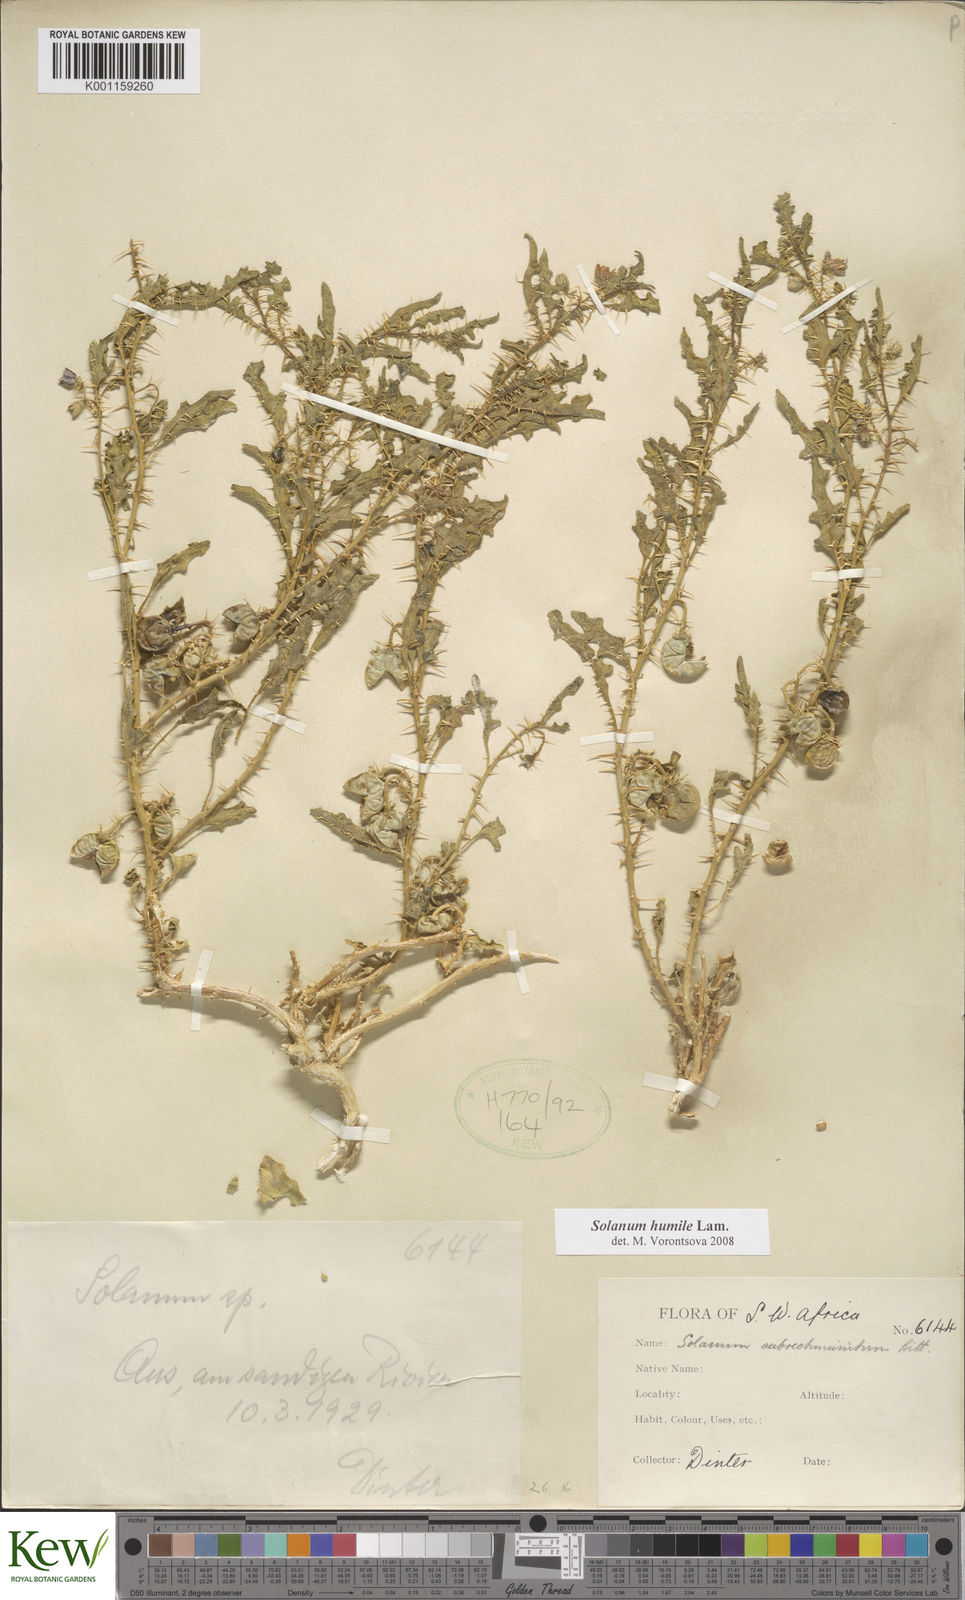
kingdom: Plantae
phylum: Tracheophyta
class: Magnoliopsida
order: Solanales
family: Solanaceae
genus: Solanum
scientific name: Solanum humile
